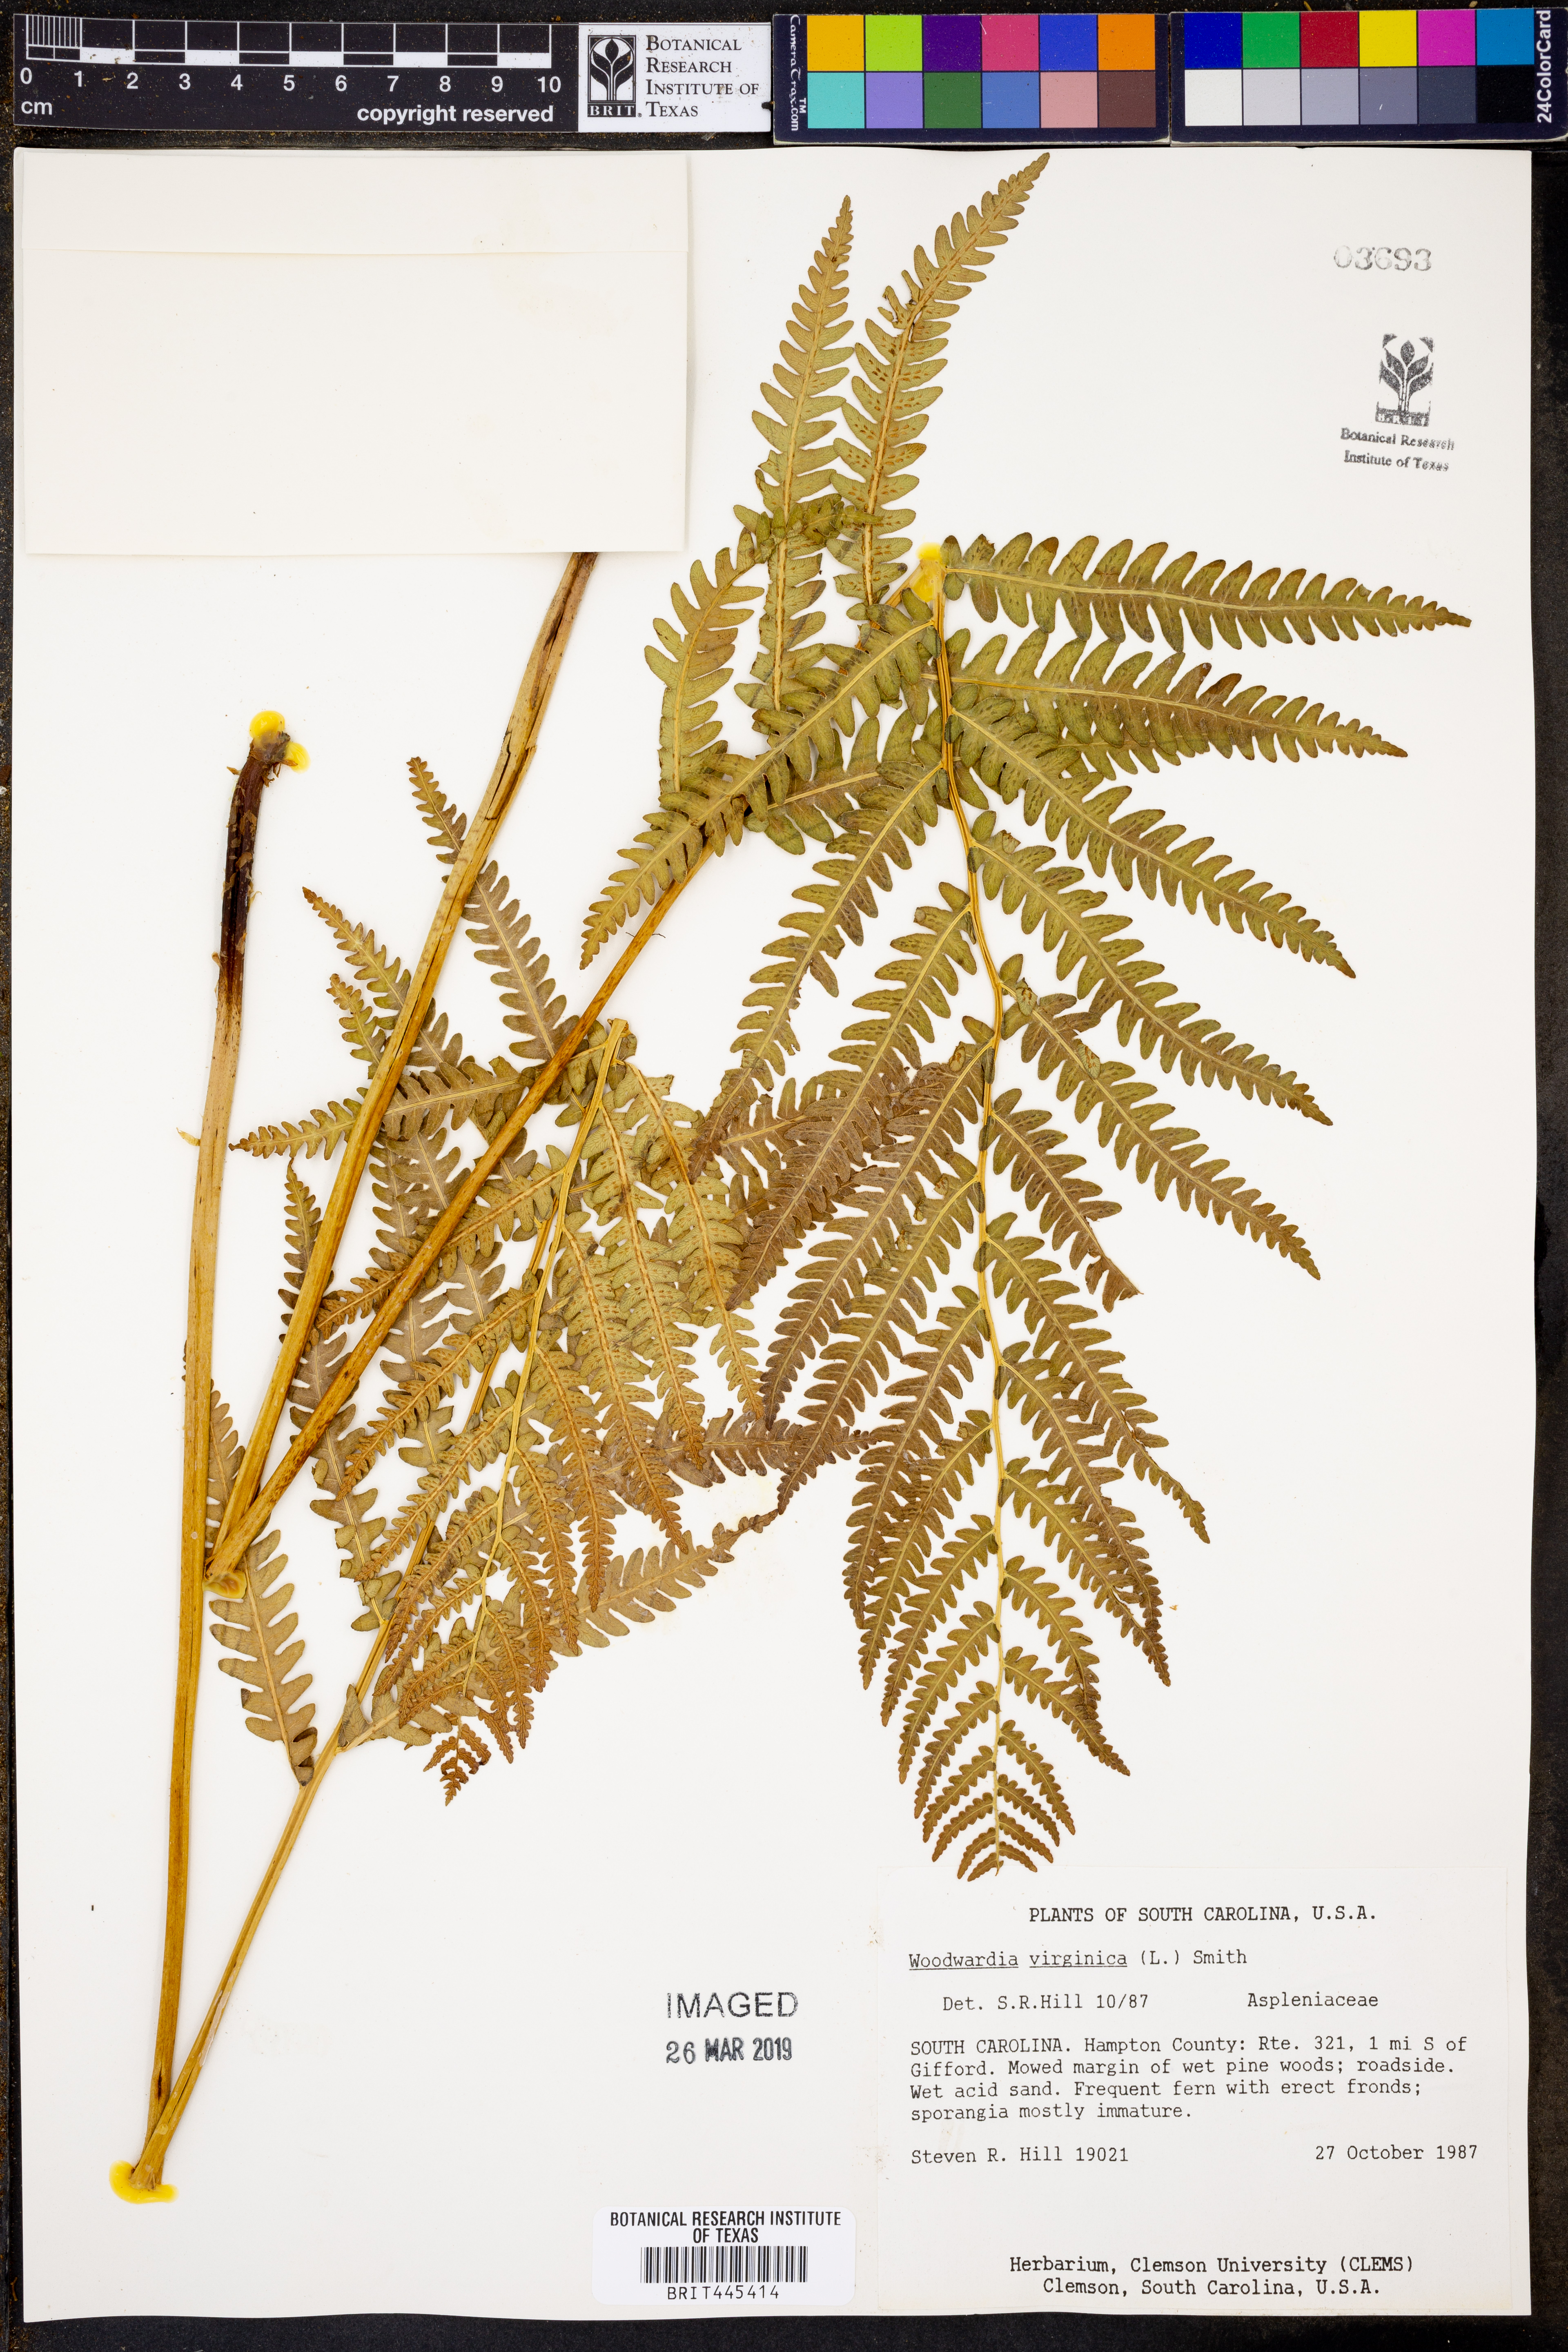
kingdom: Plantae
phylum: Tracheophyta
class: Polypodiopsida
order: Polypodiales
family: Blechnaceae
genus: Anchistea
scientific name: Anchistea virginica
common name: Virginia chain fern
